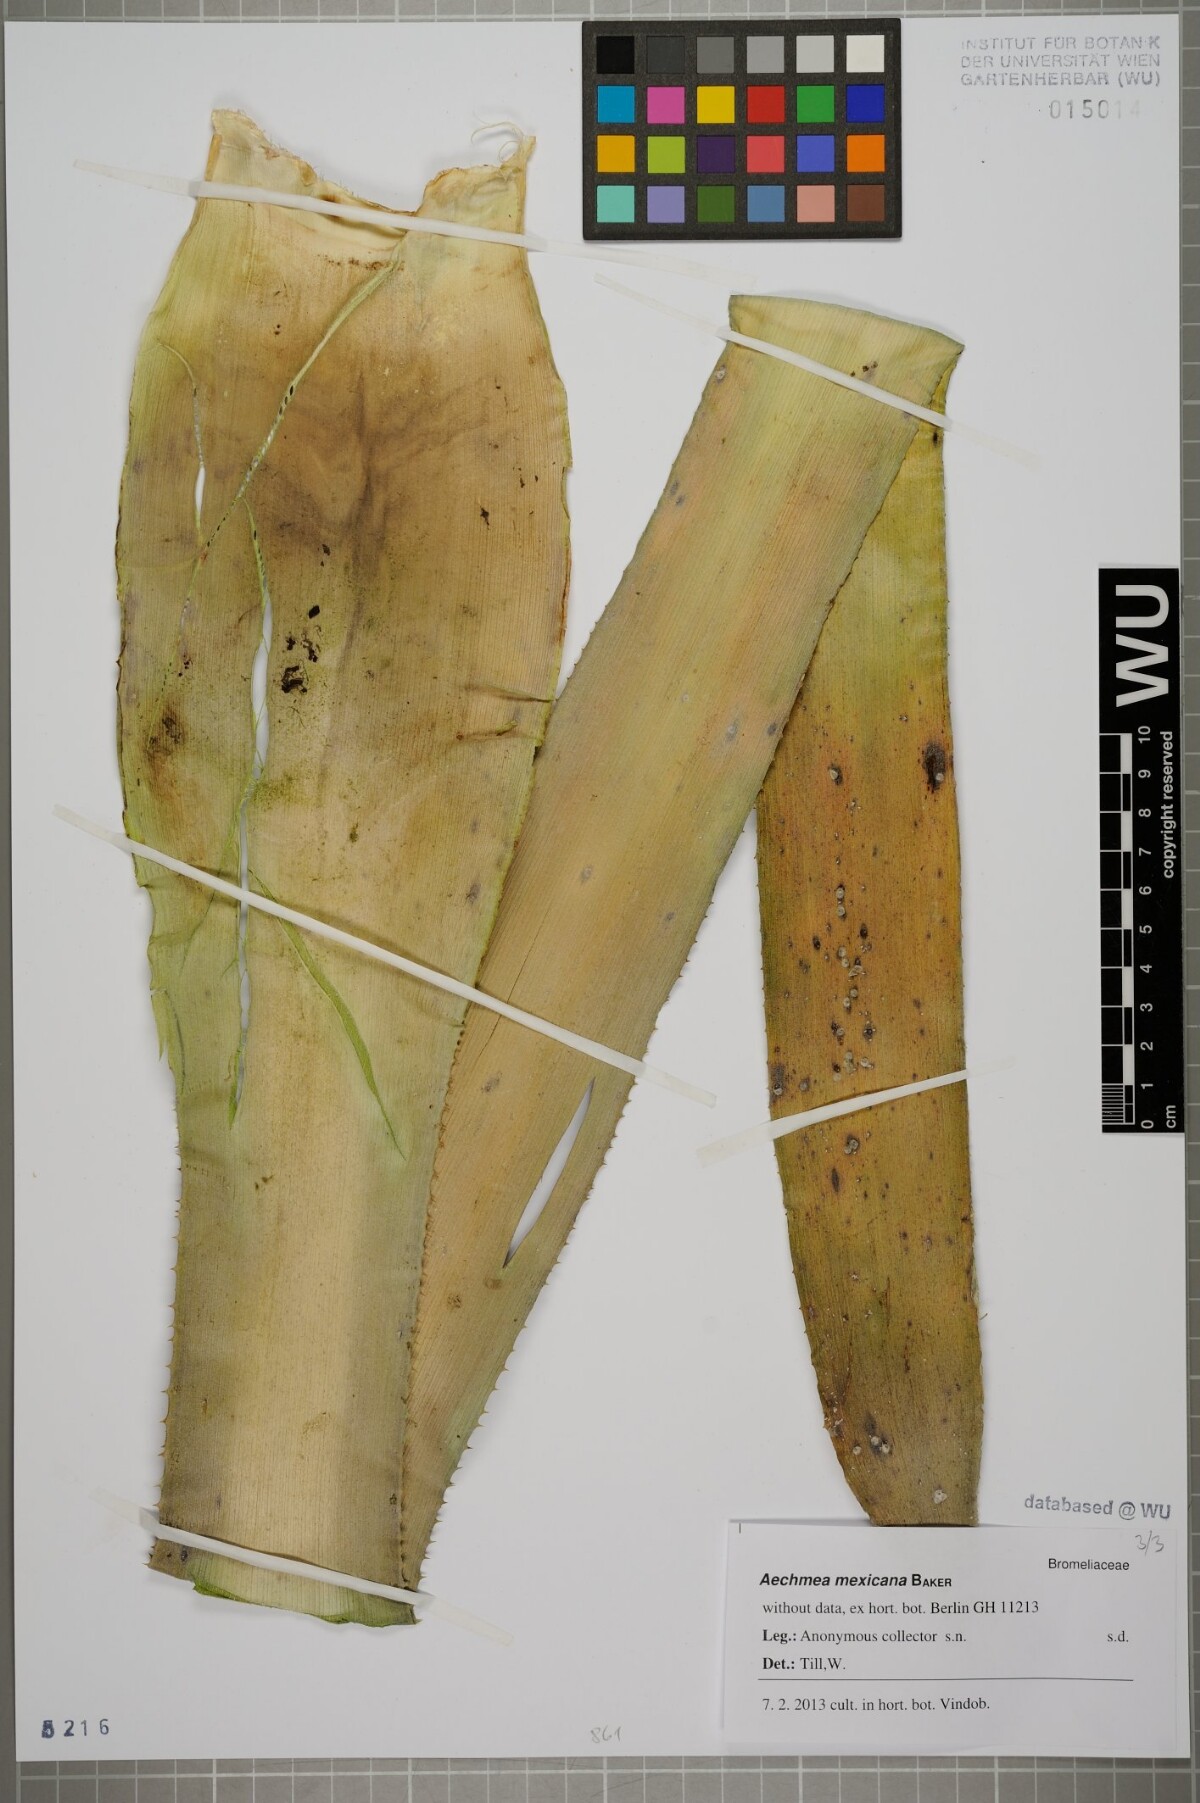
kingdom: Plantae
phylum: Tracheophyta
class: Liliopsida
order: Poales
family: Bromeliaceae
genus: Aechmea
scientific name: Aechmea mexicana
